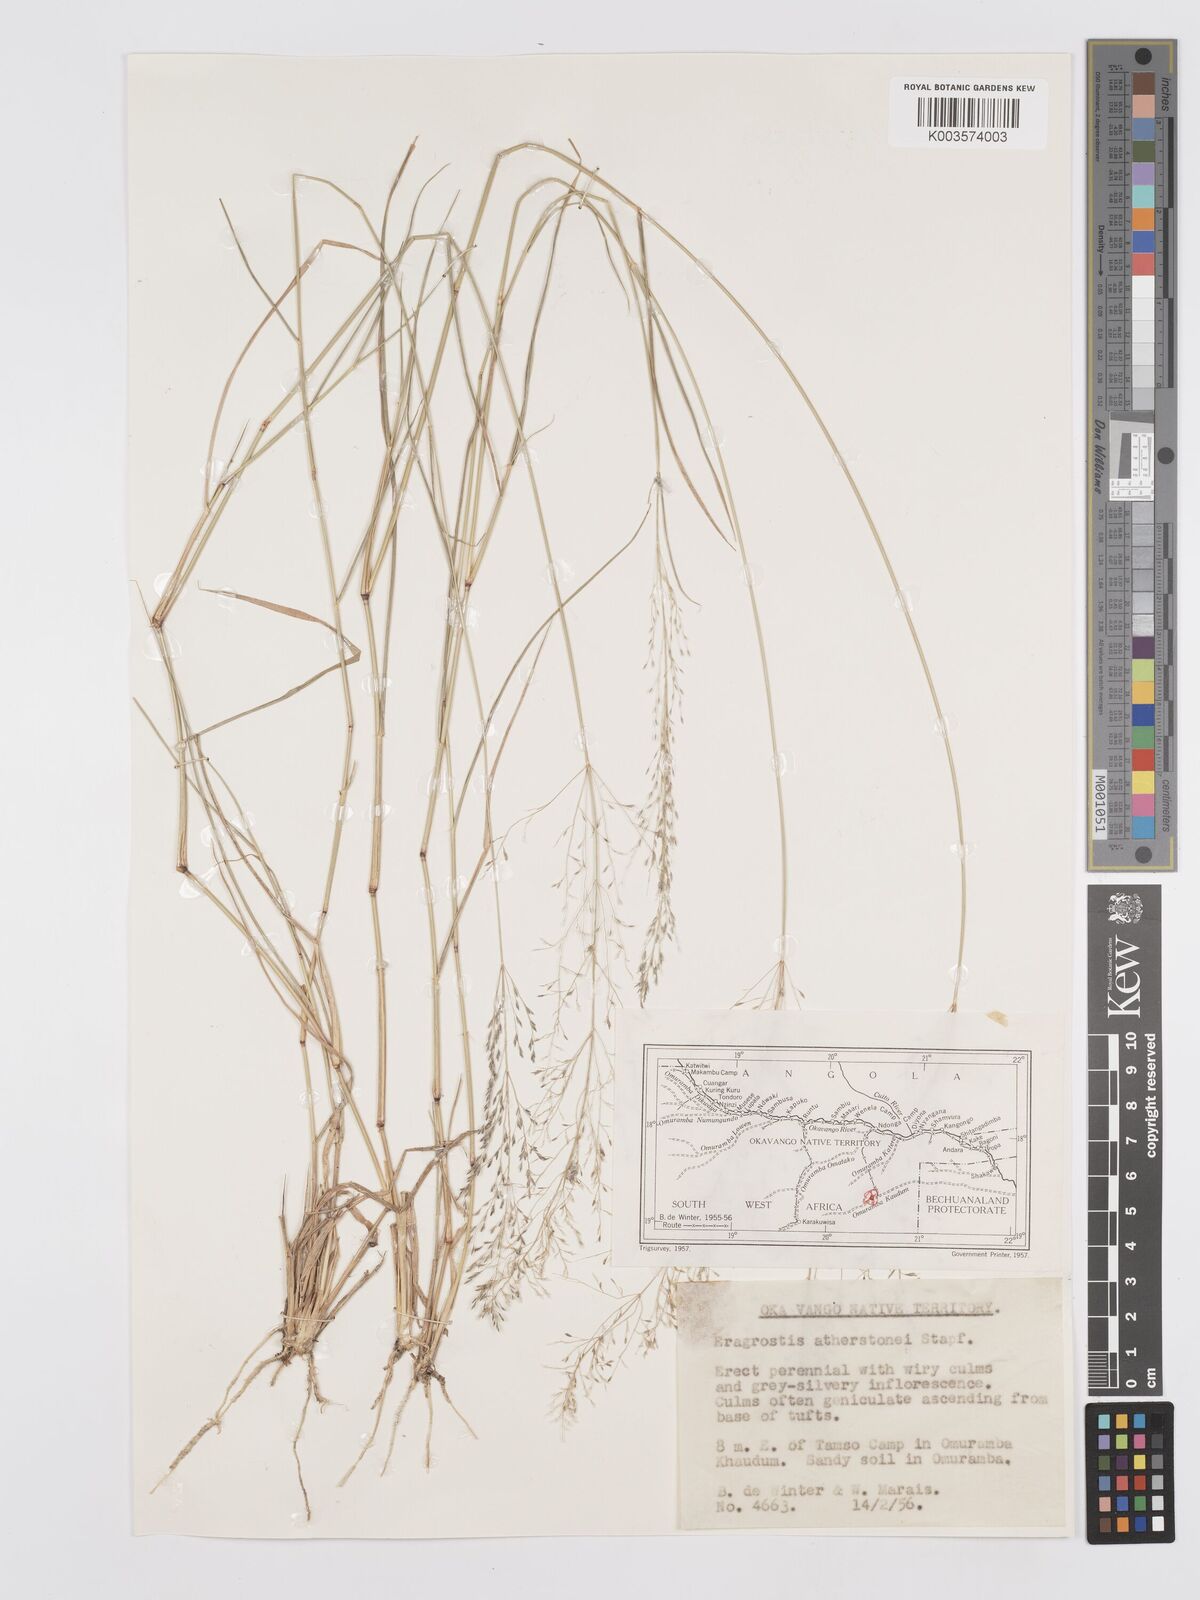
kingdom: Plantae
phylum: Tracheophyta
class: Liliopsida
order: Poales
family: Poaceae
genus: Eragrostis
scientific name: Eragrostis cylindriflora
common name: Cylinderflower lovegrass
